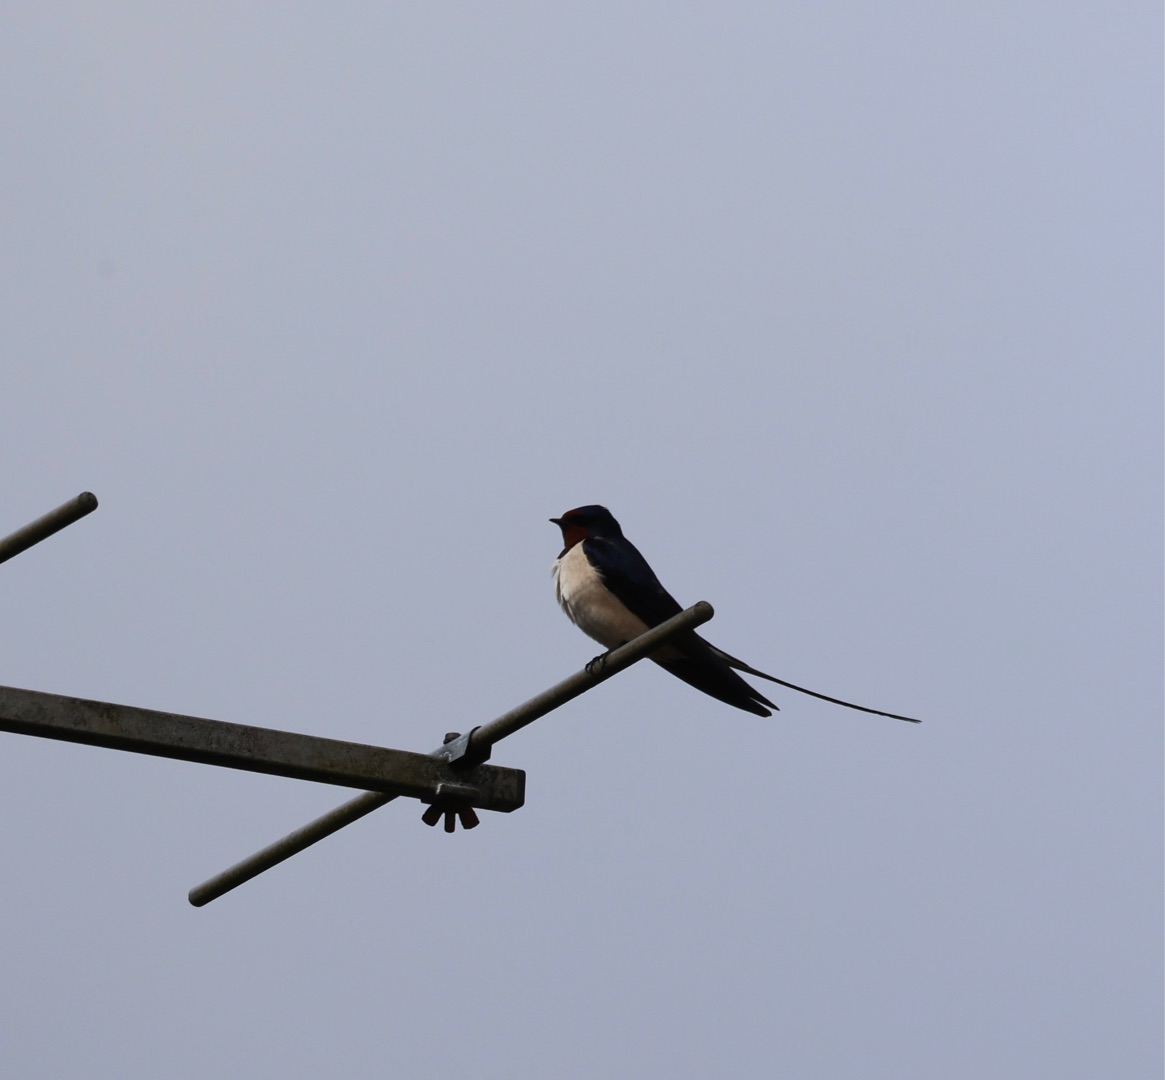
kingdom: Animalia
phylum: Chordata
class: Aves
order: Passeriformes
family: Hirundinidae
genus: Hirundo
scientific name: Hirundo rustica
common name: Landsvale
